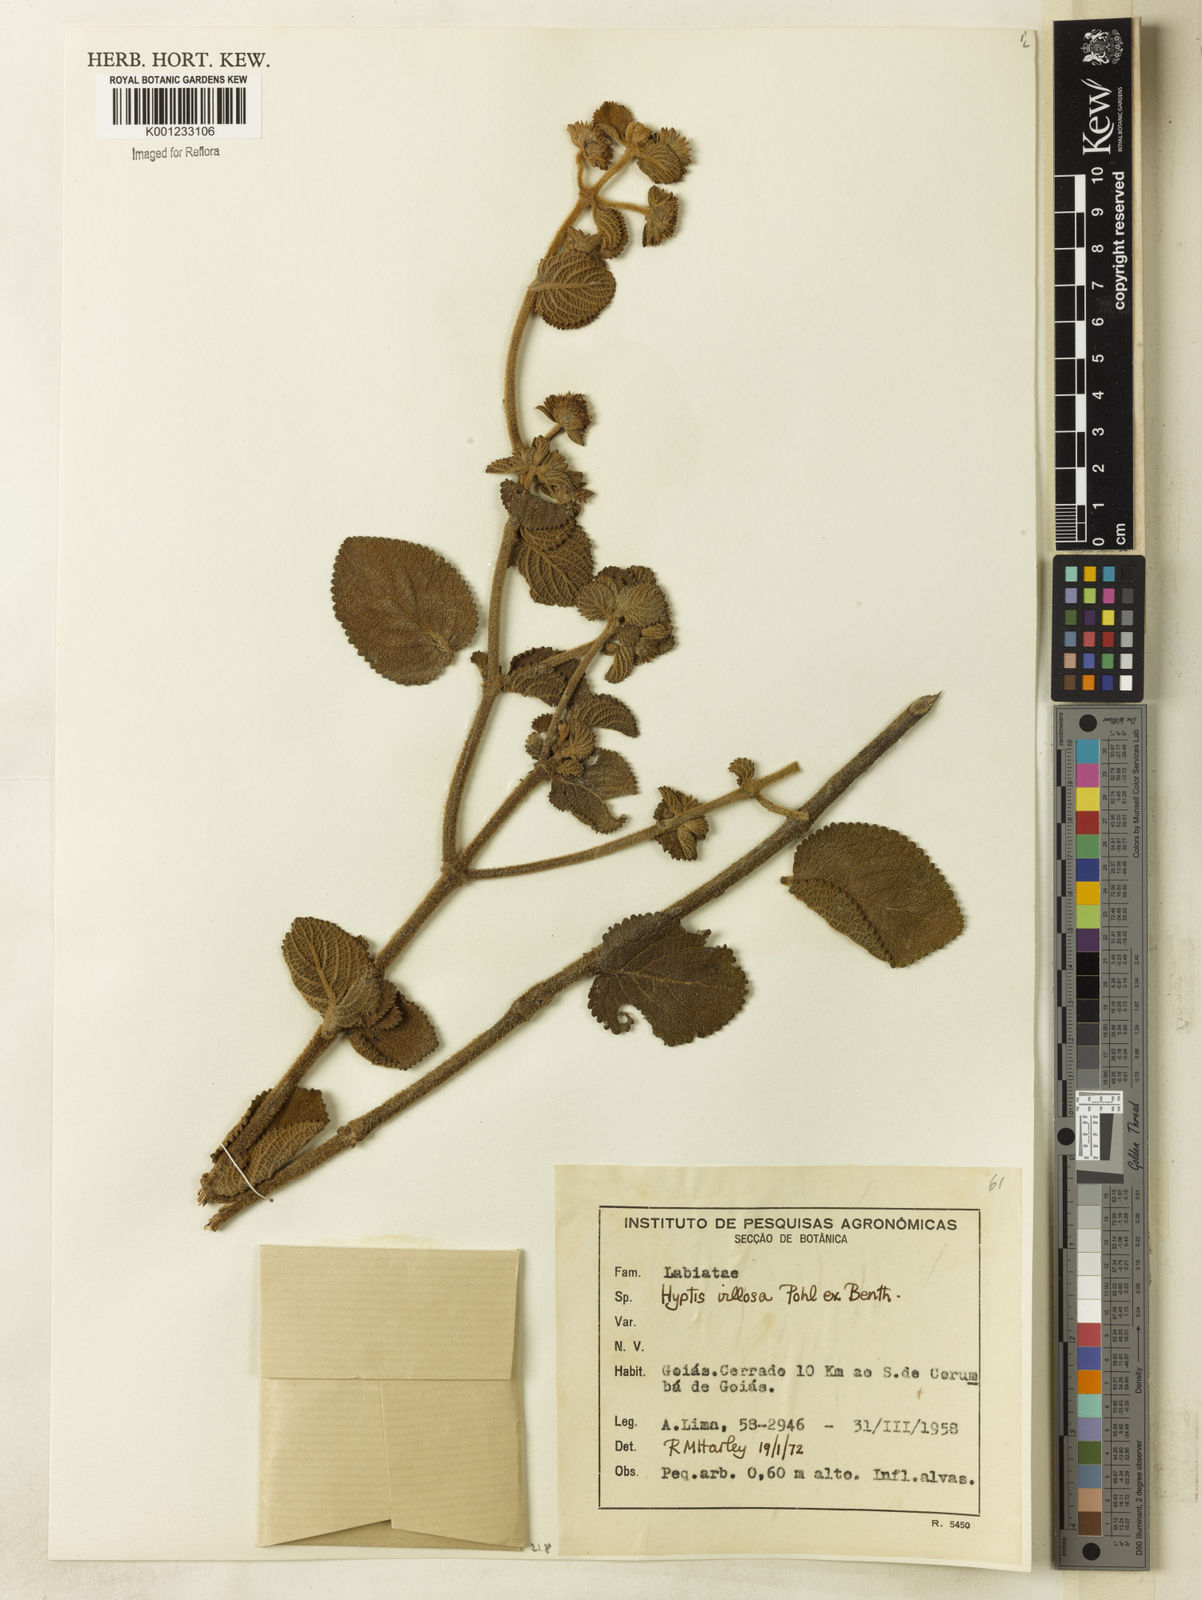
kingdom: Plantae
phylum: Tracheophyta
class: Magnoliopsida
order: Lamiales
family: Lamiaceae
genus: Hyptis
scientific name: Hyptis villosa
